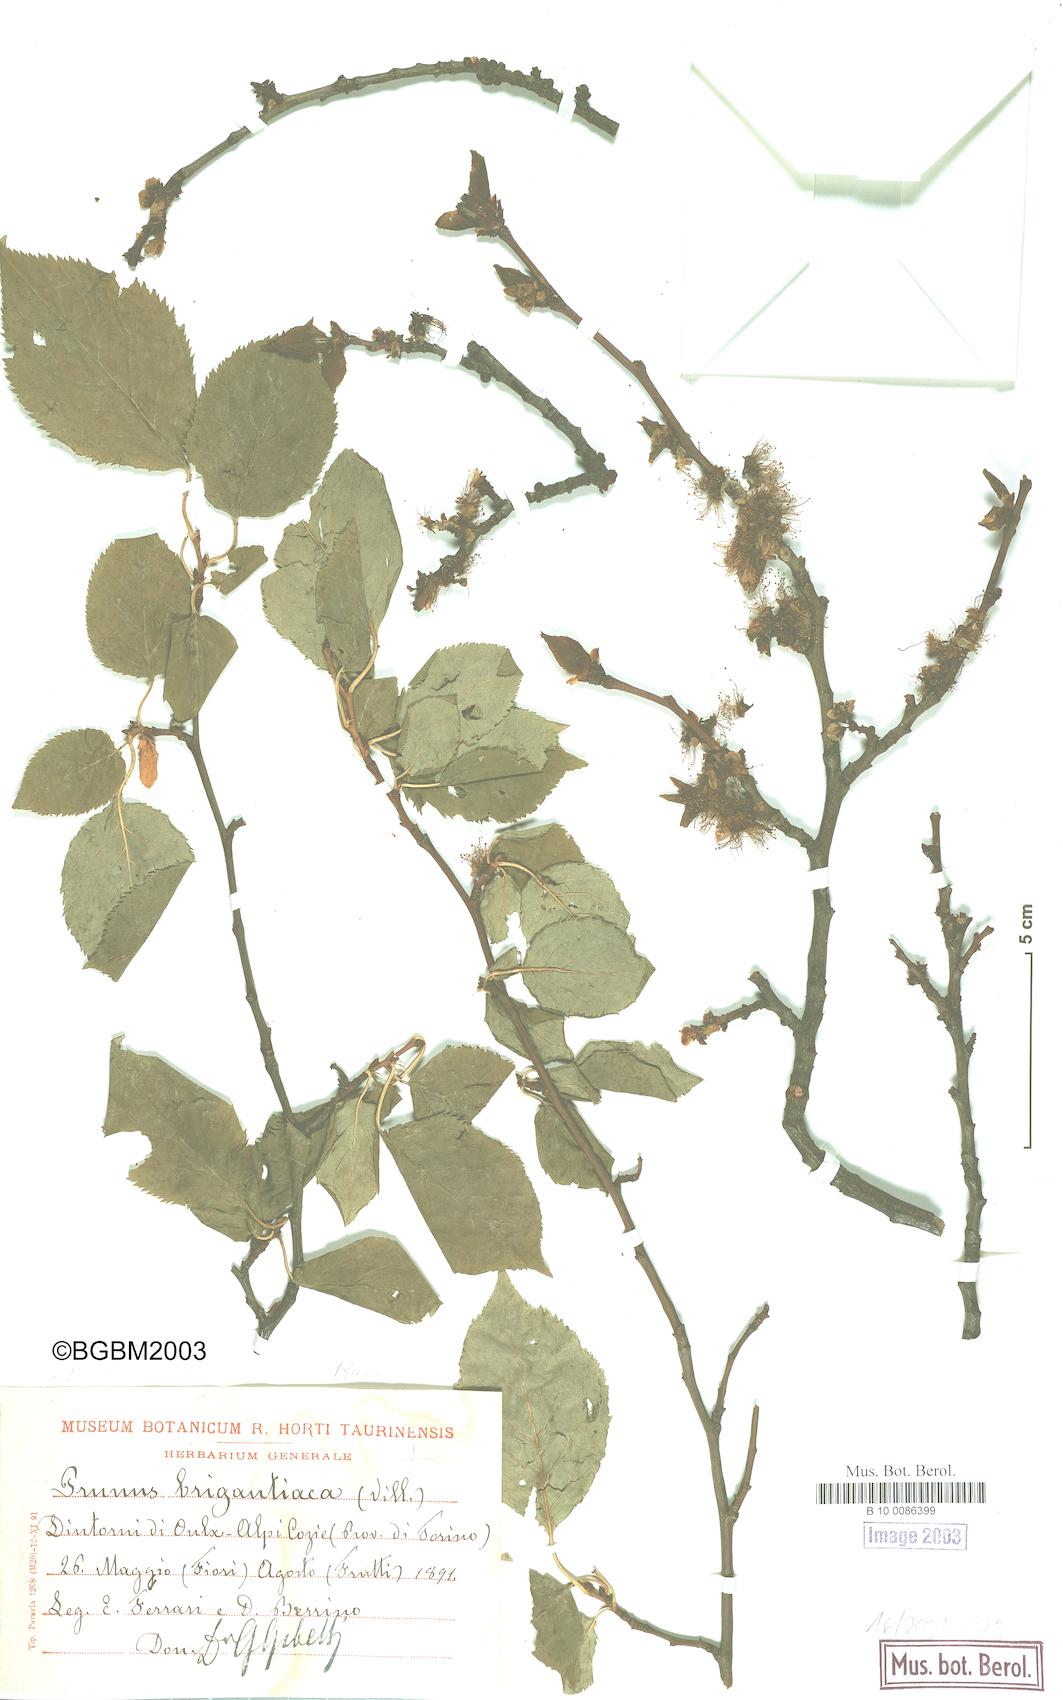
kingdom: Plantae
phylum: Tracheophyta
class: Magnoliopsida
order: Rosales
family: Rosaceae
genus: Prunus
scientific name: Prunus
